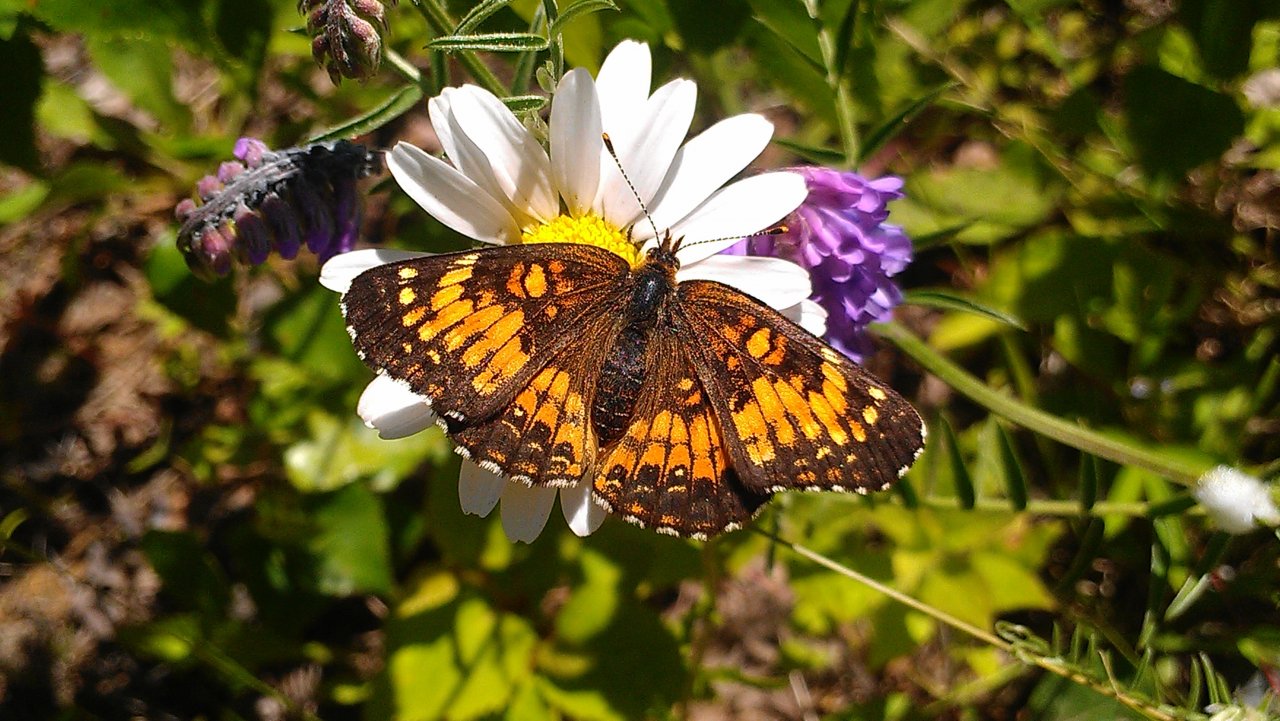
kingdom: Animalia
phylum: Arthropoda
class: Insecta
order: Lepidoptera
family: Nymphalidae
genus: Chlosyne
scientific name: Chlosyne harrisii
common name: Harris's Checkerspot
